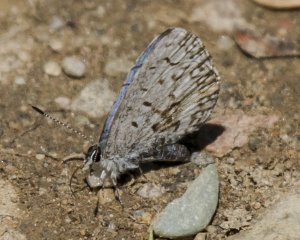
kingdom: Animalia
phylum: Arthropoda
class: Insecta
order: Lepidoptera
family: Lycaenidae
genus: Celastrina
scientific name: Celastrina lucia
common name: Northern Spring Azure
